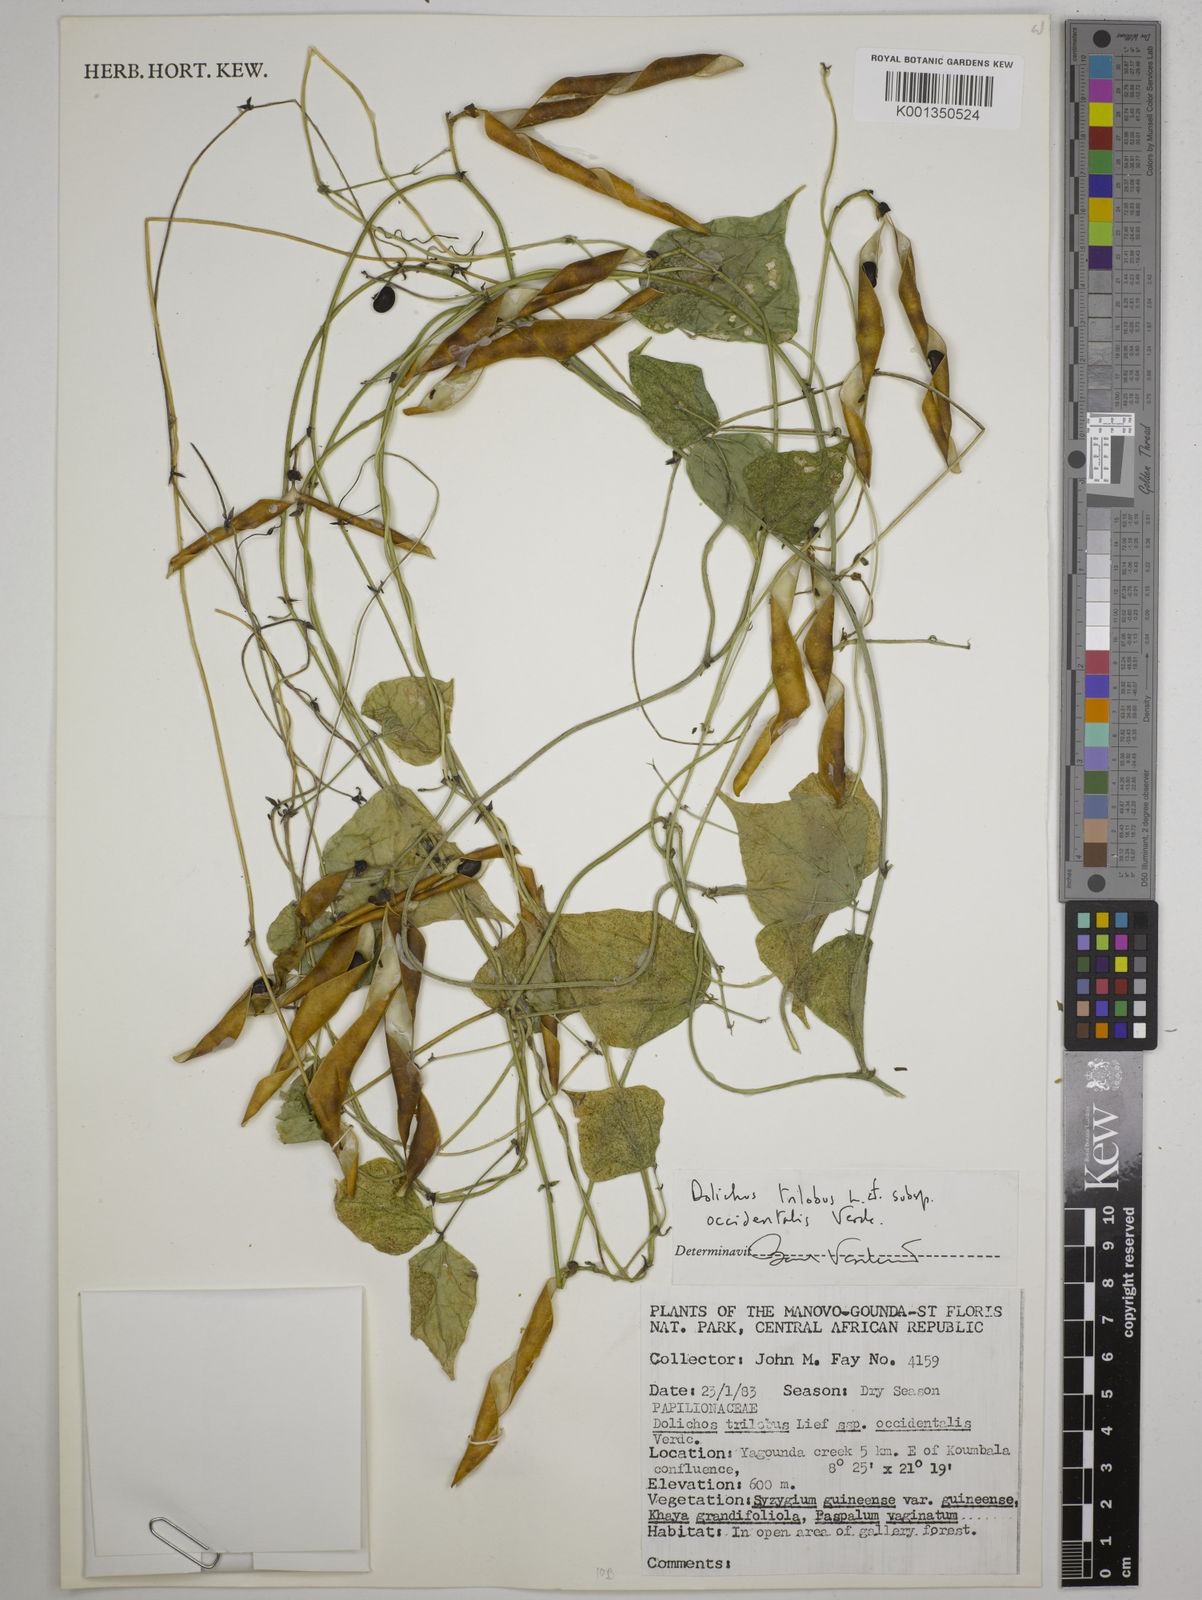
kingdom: Plantae
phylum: Tracheophyta
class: Magnoliopsida
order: Fabales
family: Fabaceae
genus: Dolichos
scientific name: Dolichos
